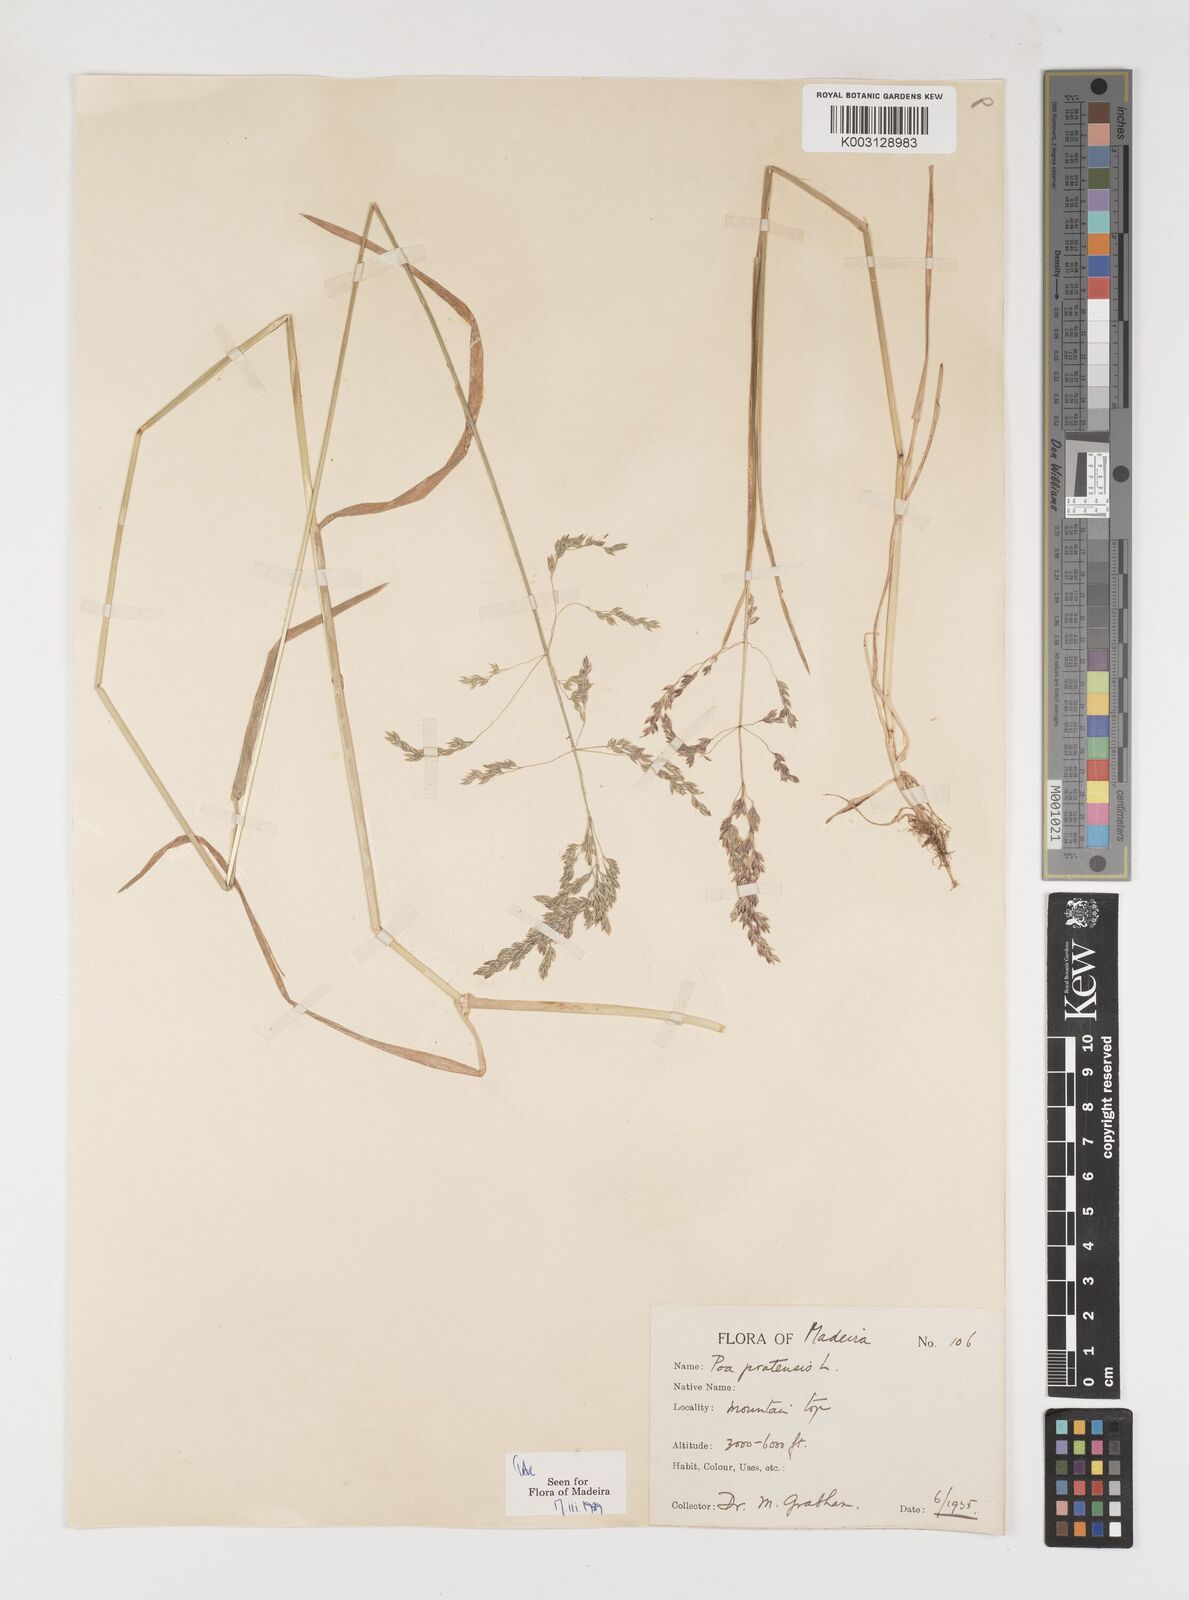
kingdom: Plantae
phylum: Tracheophyta
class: Liliopsida
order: Poales
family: Poaceae
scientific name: Poaceae
